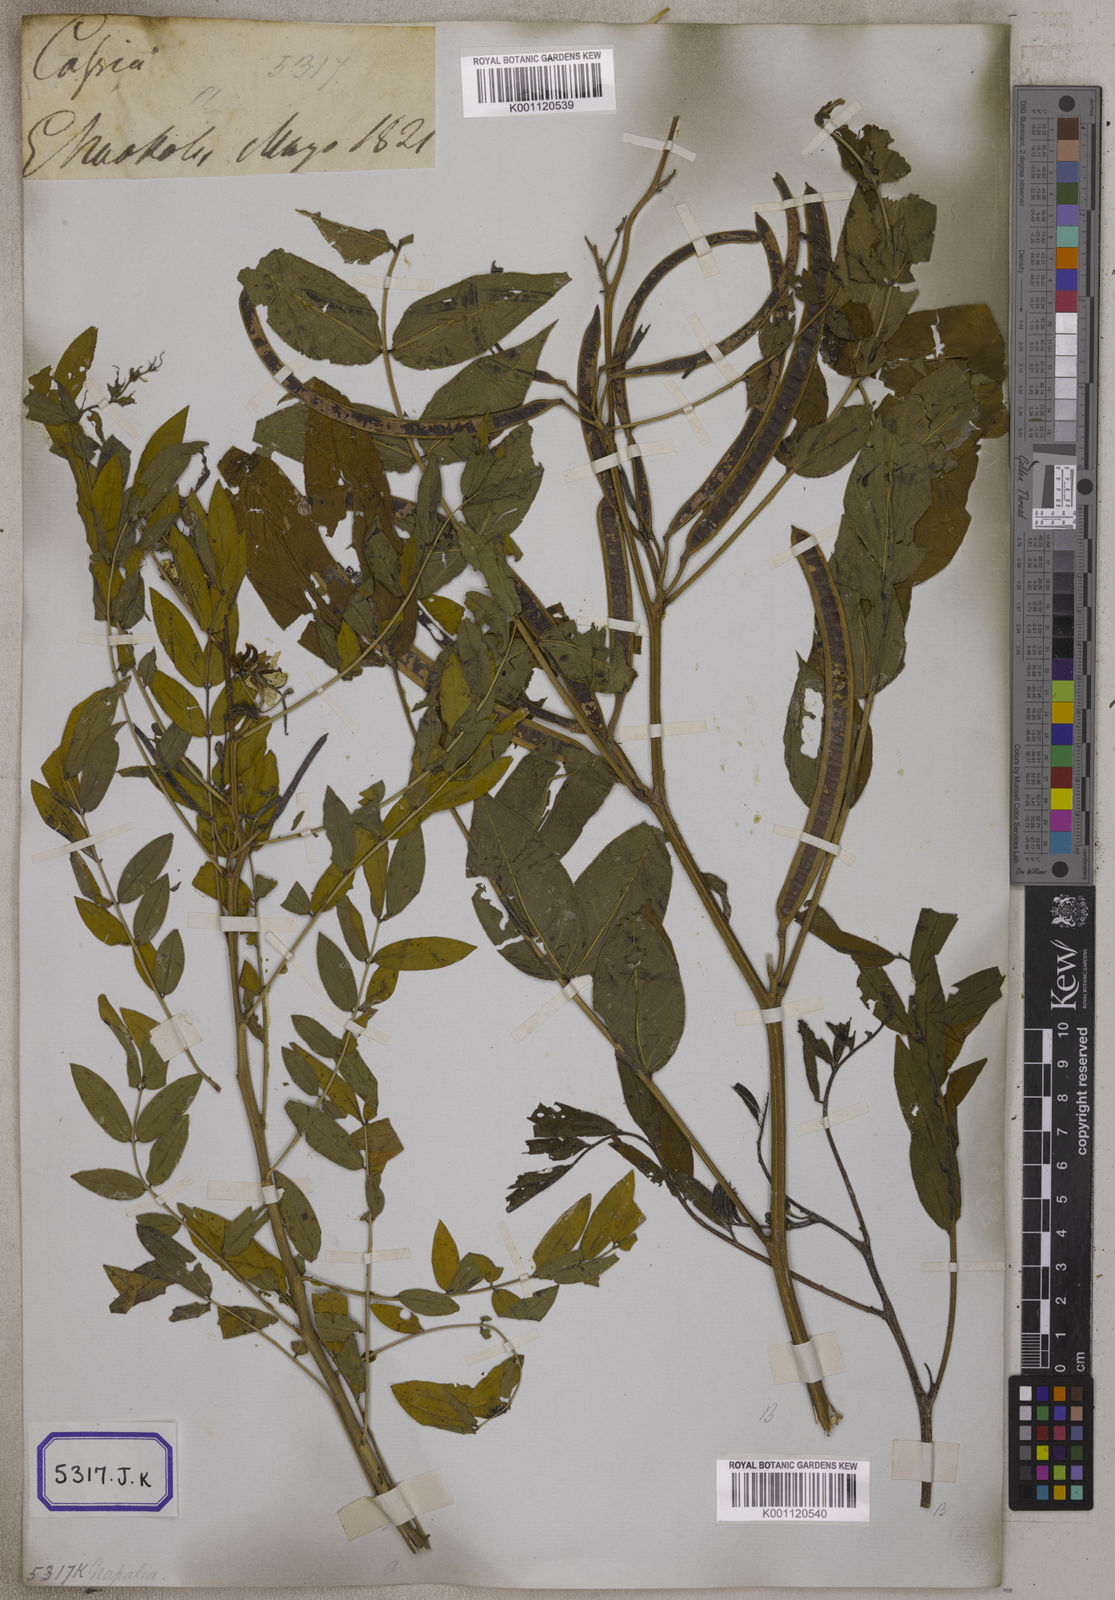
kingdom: Plantae
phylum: Tracheophyta
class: Magnoliopsida
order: Fabales
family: Fabaceae
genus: Cassia
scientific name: Cassia
